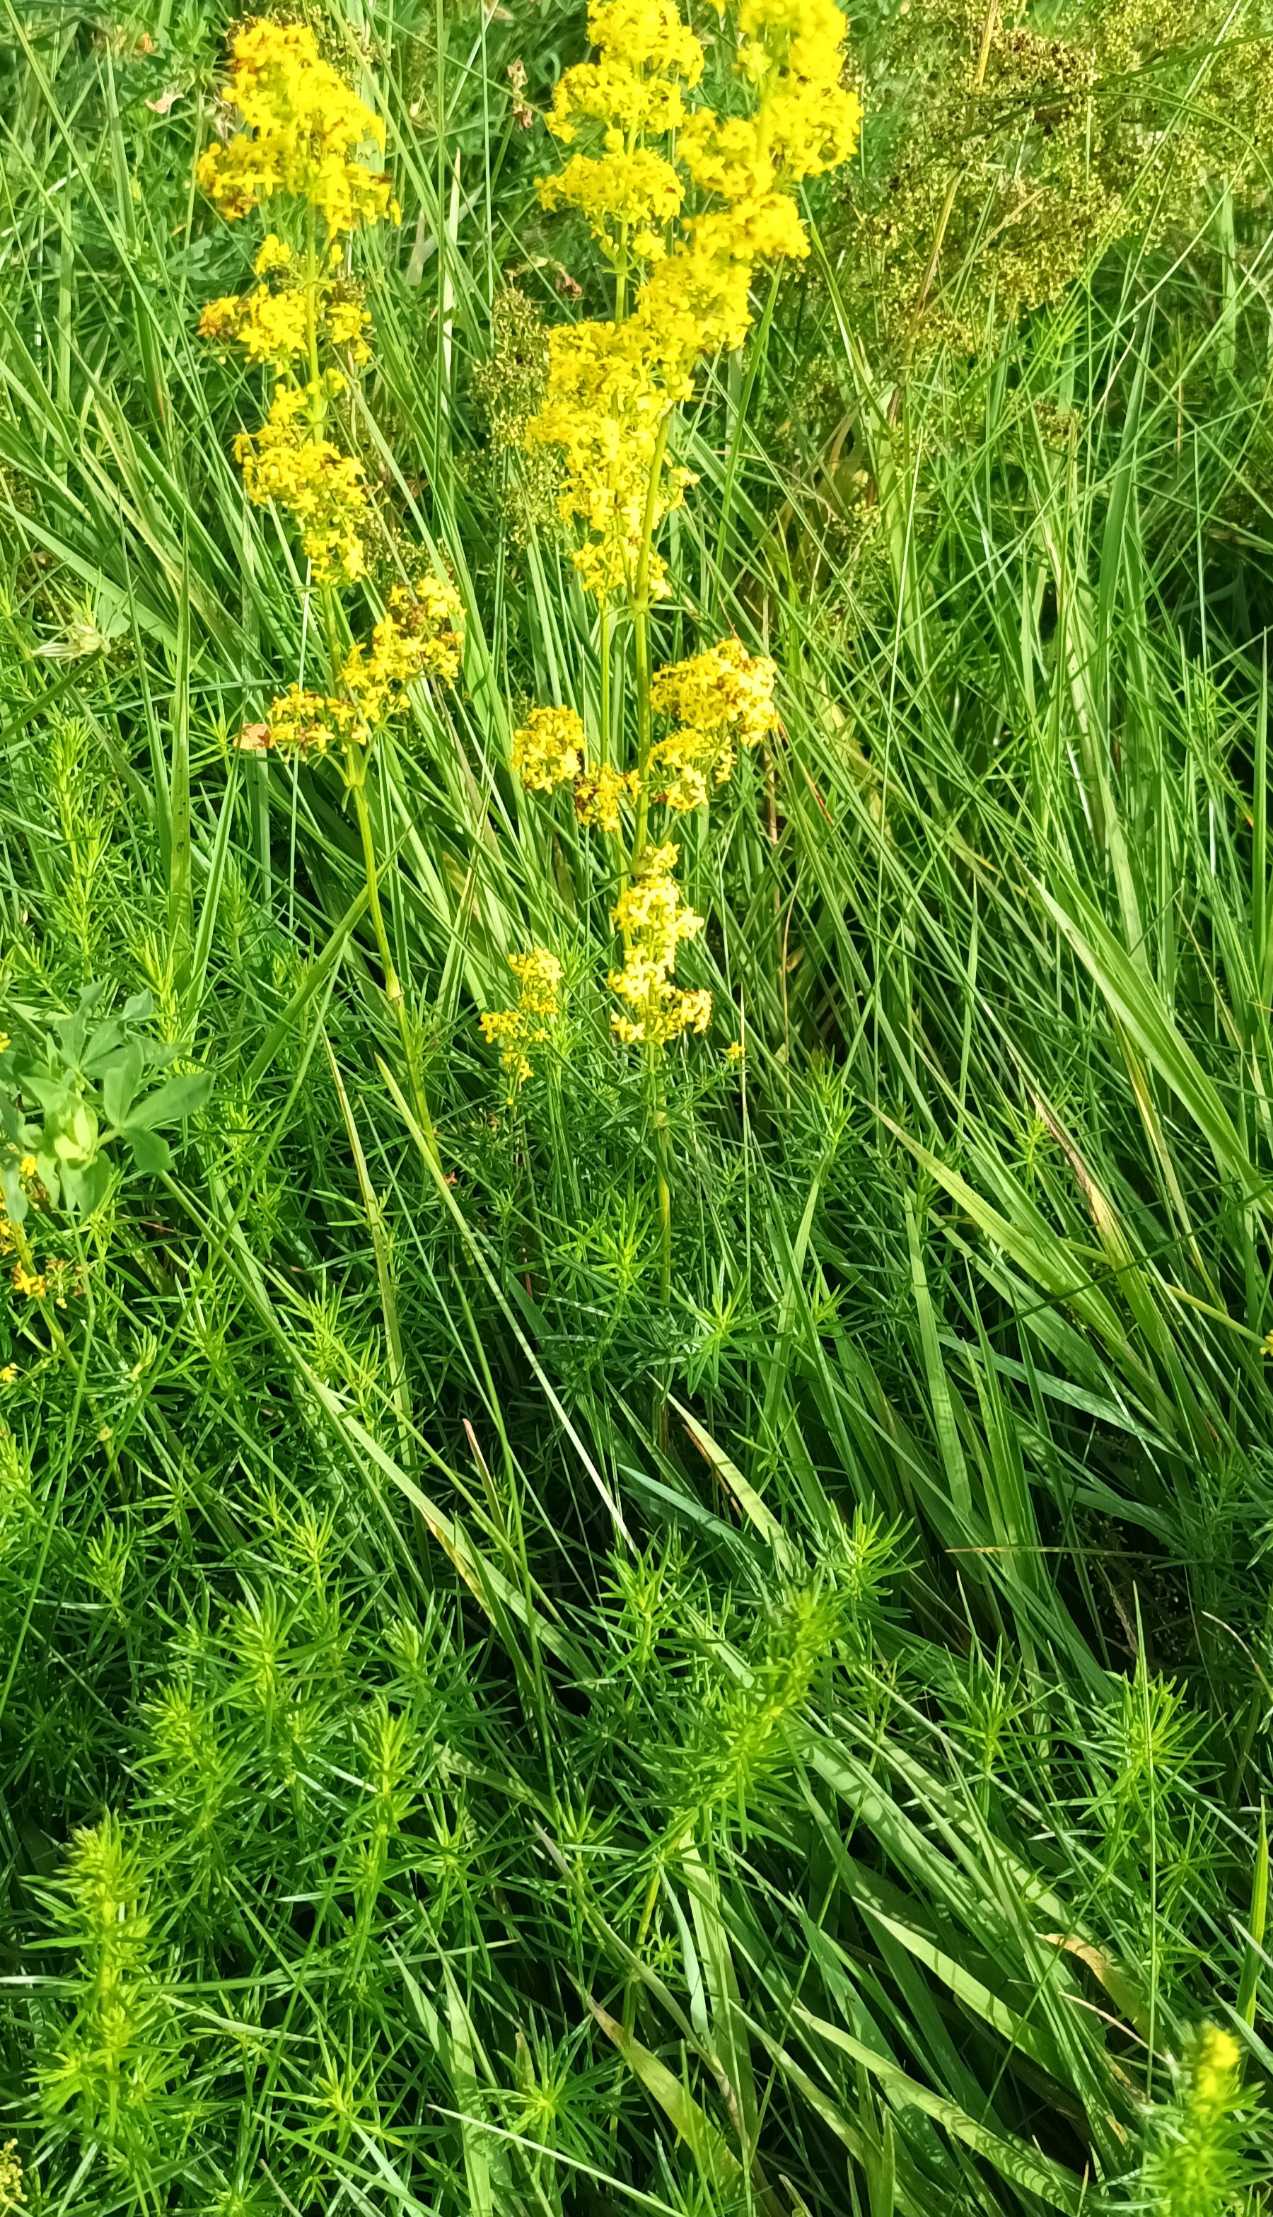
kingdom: Plantae
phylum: Tracheophyta
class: Magnoliopsida
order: Gentianales
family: Rubiaceae
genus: Galium
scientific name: Galium verum
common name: Gul snerre
